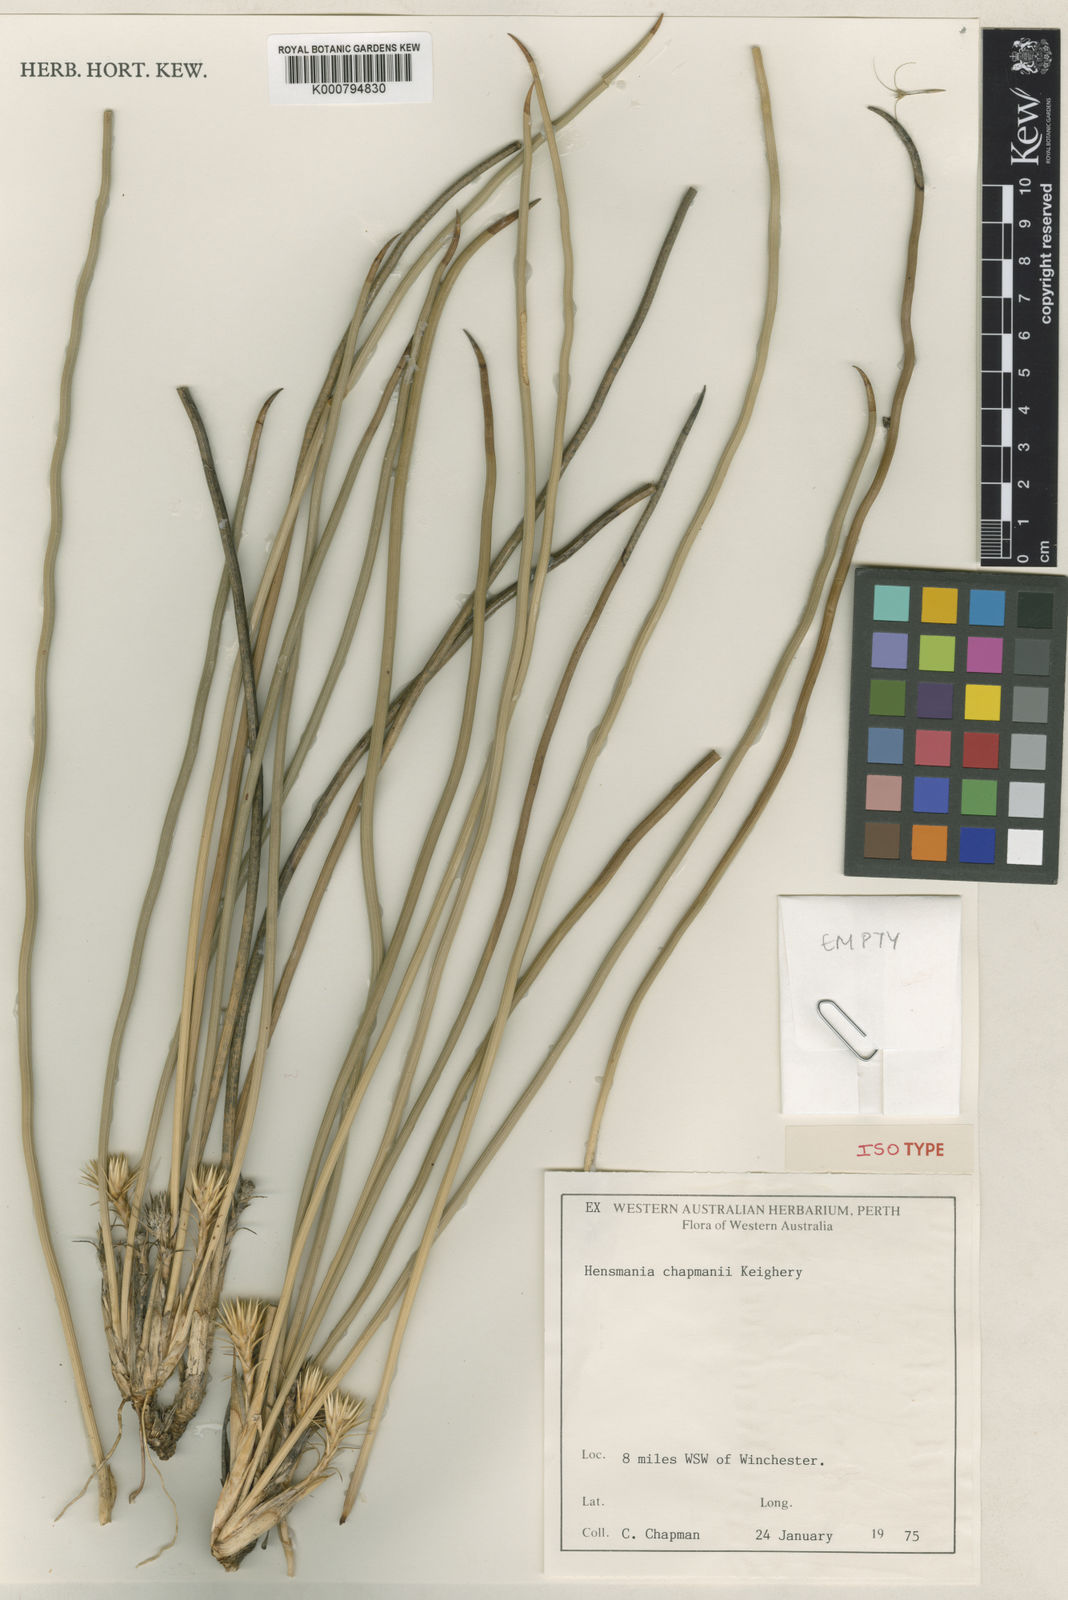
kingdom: Plantae
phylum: Tracheophyta
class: Liliopsida
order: Asparagales
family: Asphodelaceae
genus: Hensmania
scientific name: Hensmania chapmanii
